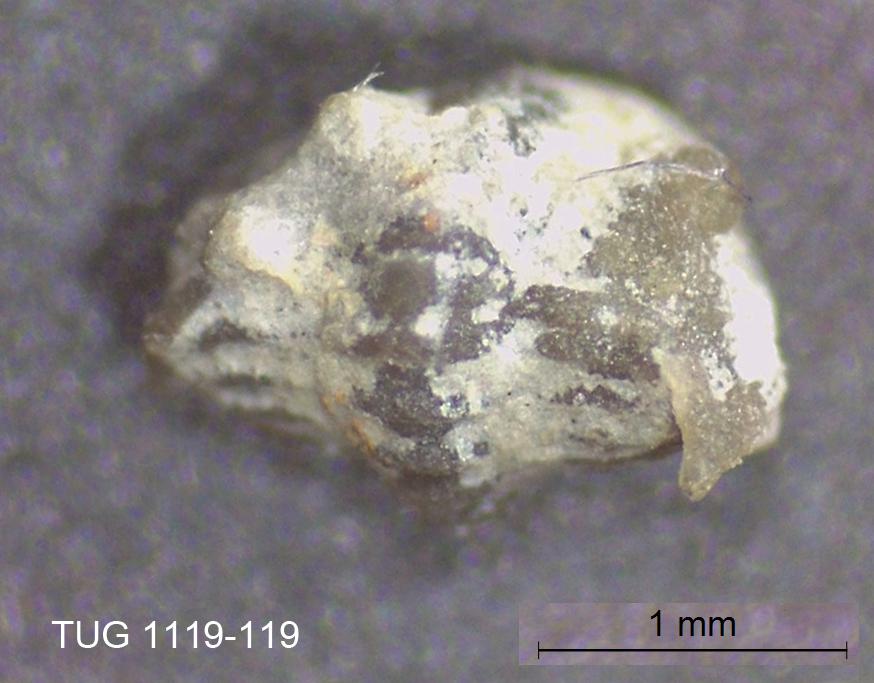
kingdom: Animalia
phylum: Arthropoda
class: Trilobita
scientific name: Trilobita
